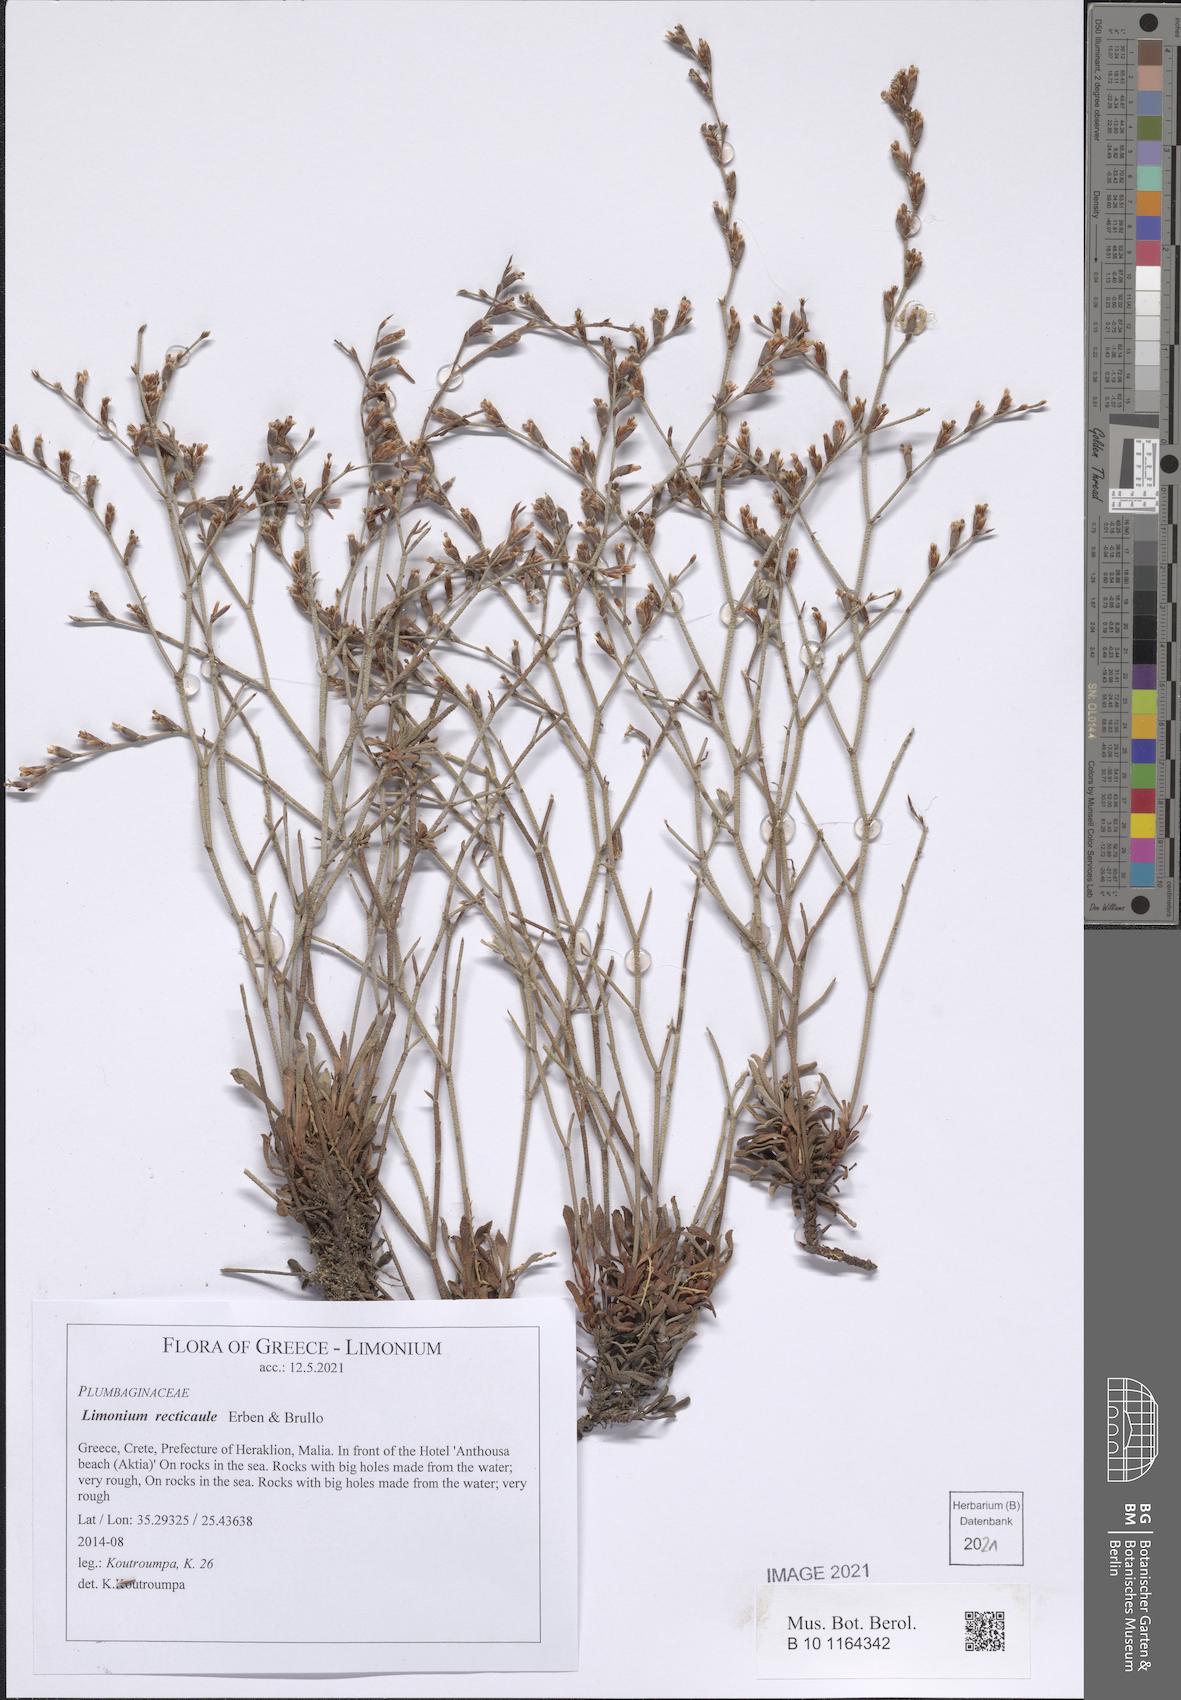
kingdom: Plantae
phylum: Tracheophyta
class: Magnoliopsida
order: Caryophyllales
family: Plumbaginaceae
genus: Limonium
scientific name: Limonium recticaule
